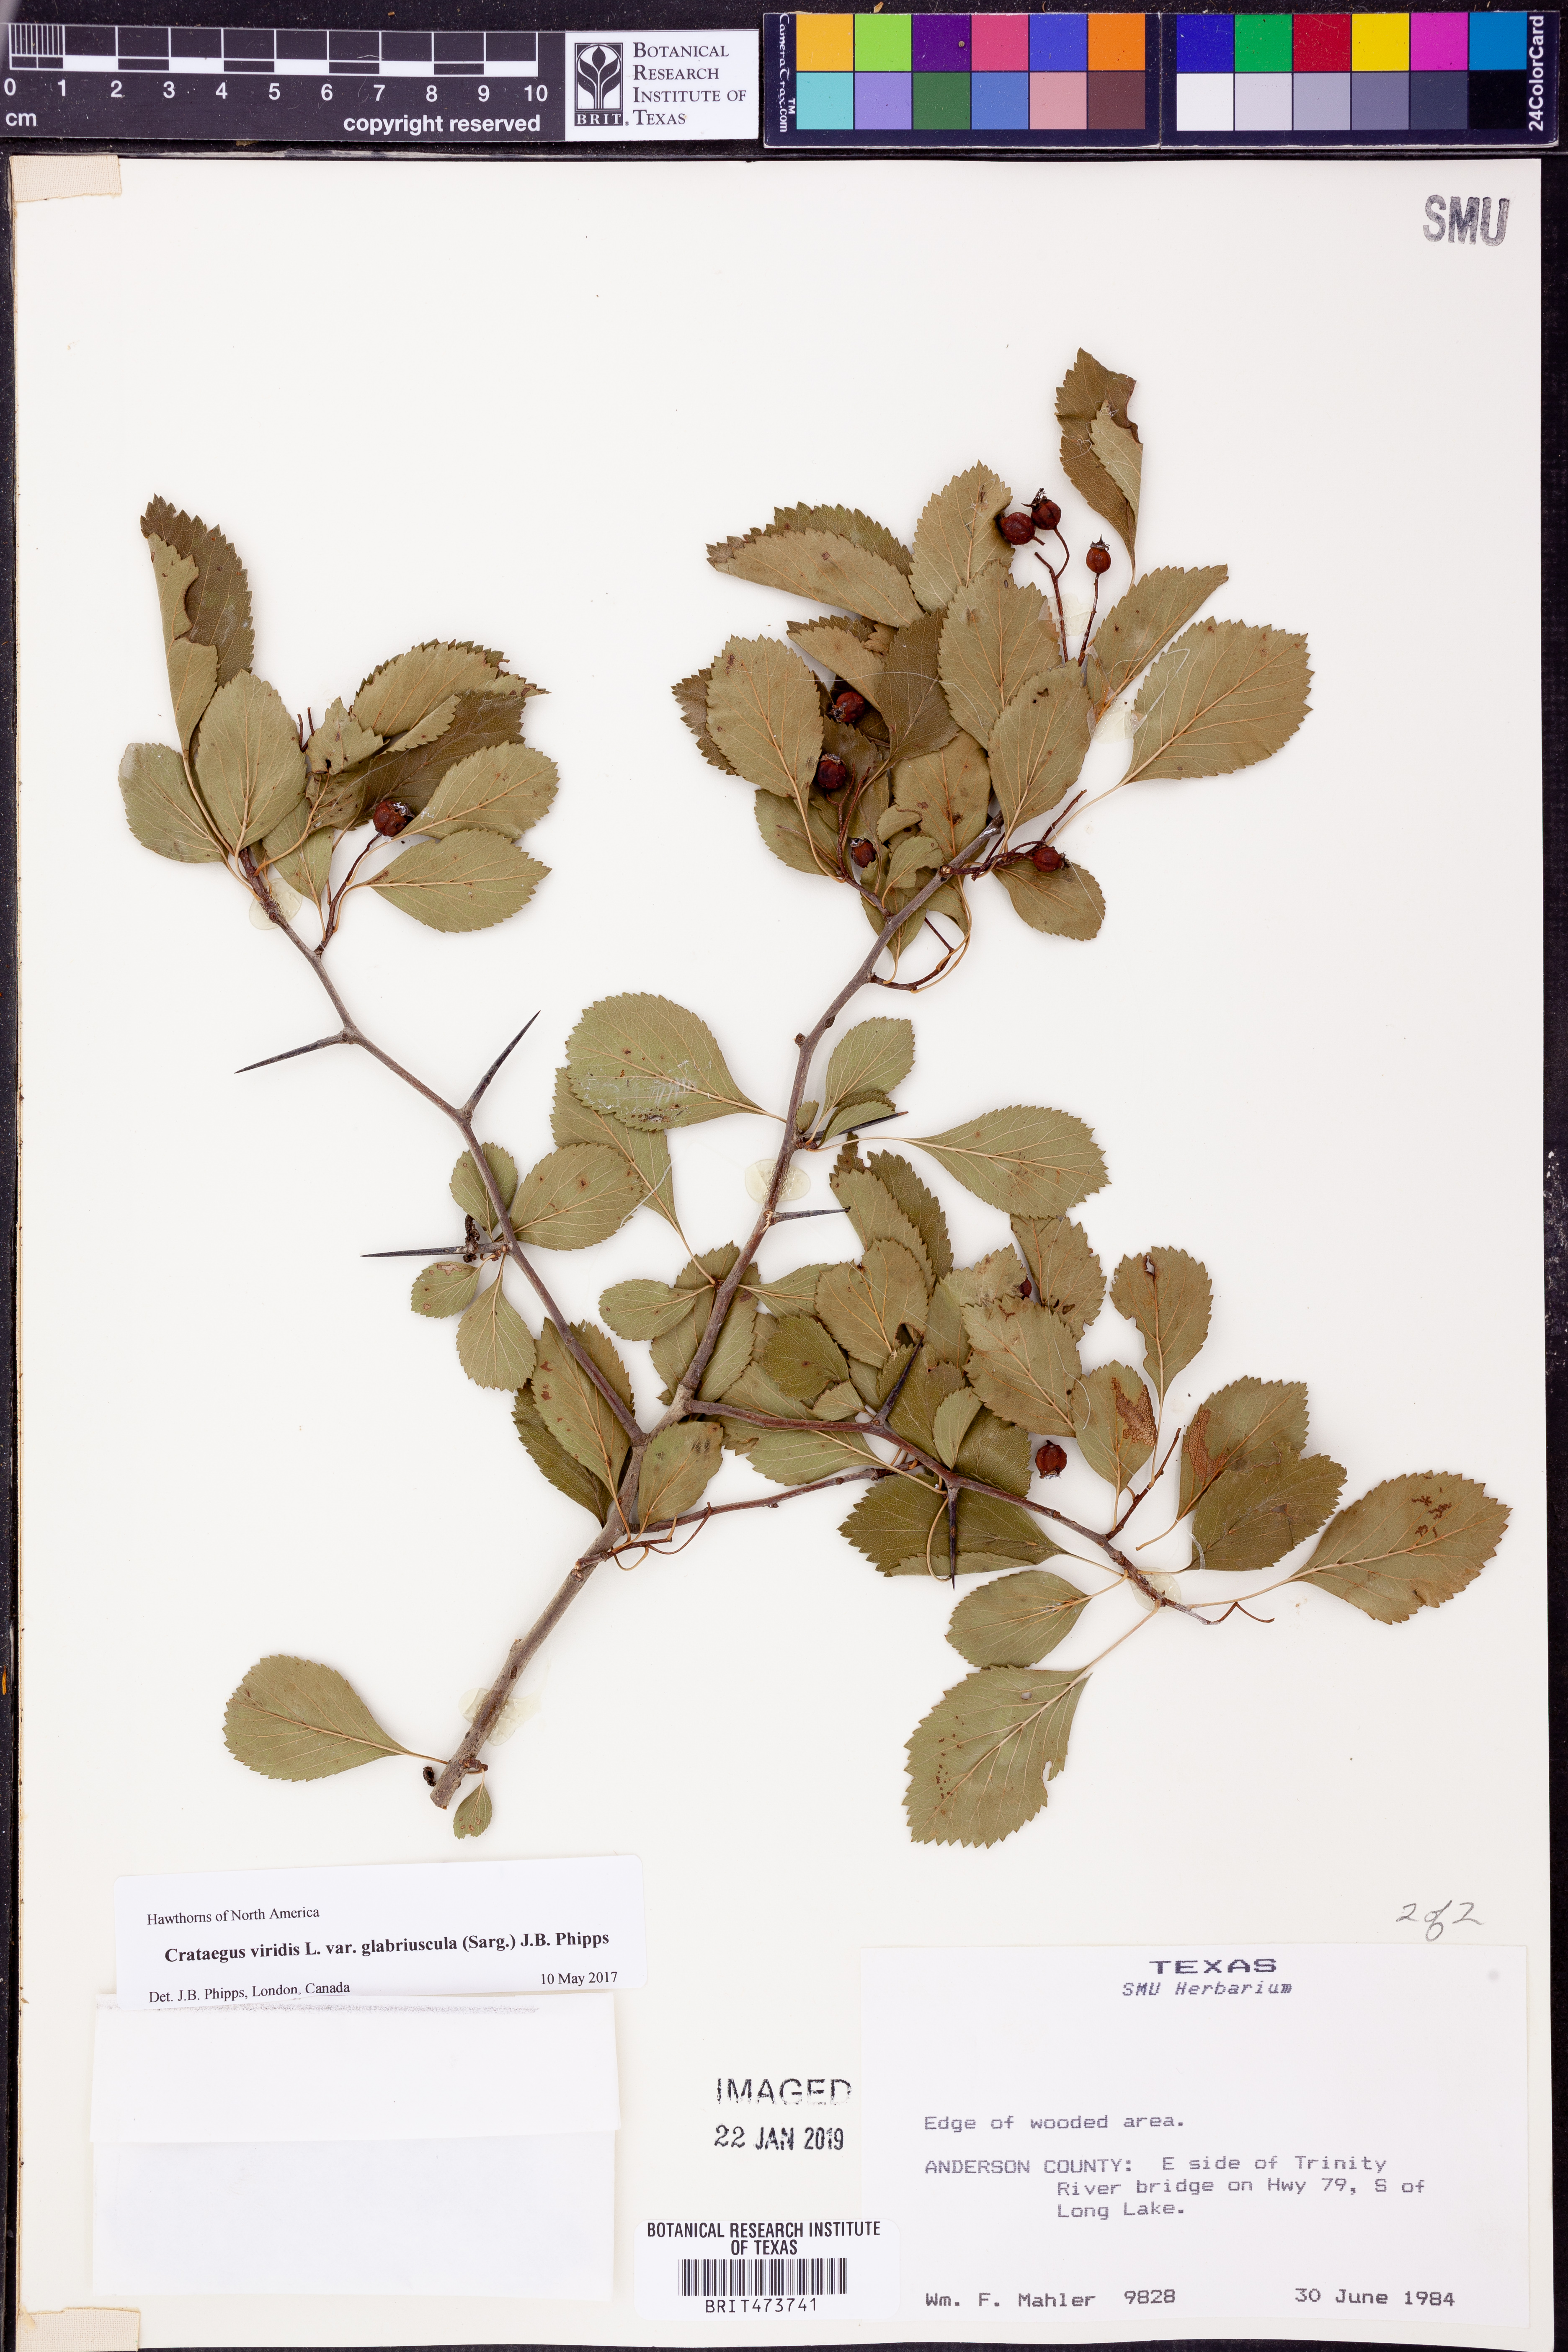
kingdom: Plantae
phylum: Tracheophyta
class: Magnoliopsida
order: Rosales
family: Rosaceae
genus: Crataegus
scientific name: Crataegus viridis
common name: Southernthorn
